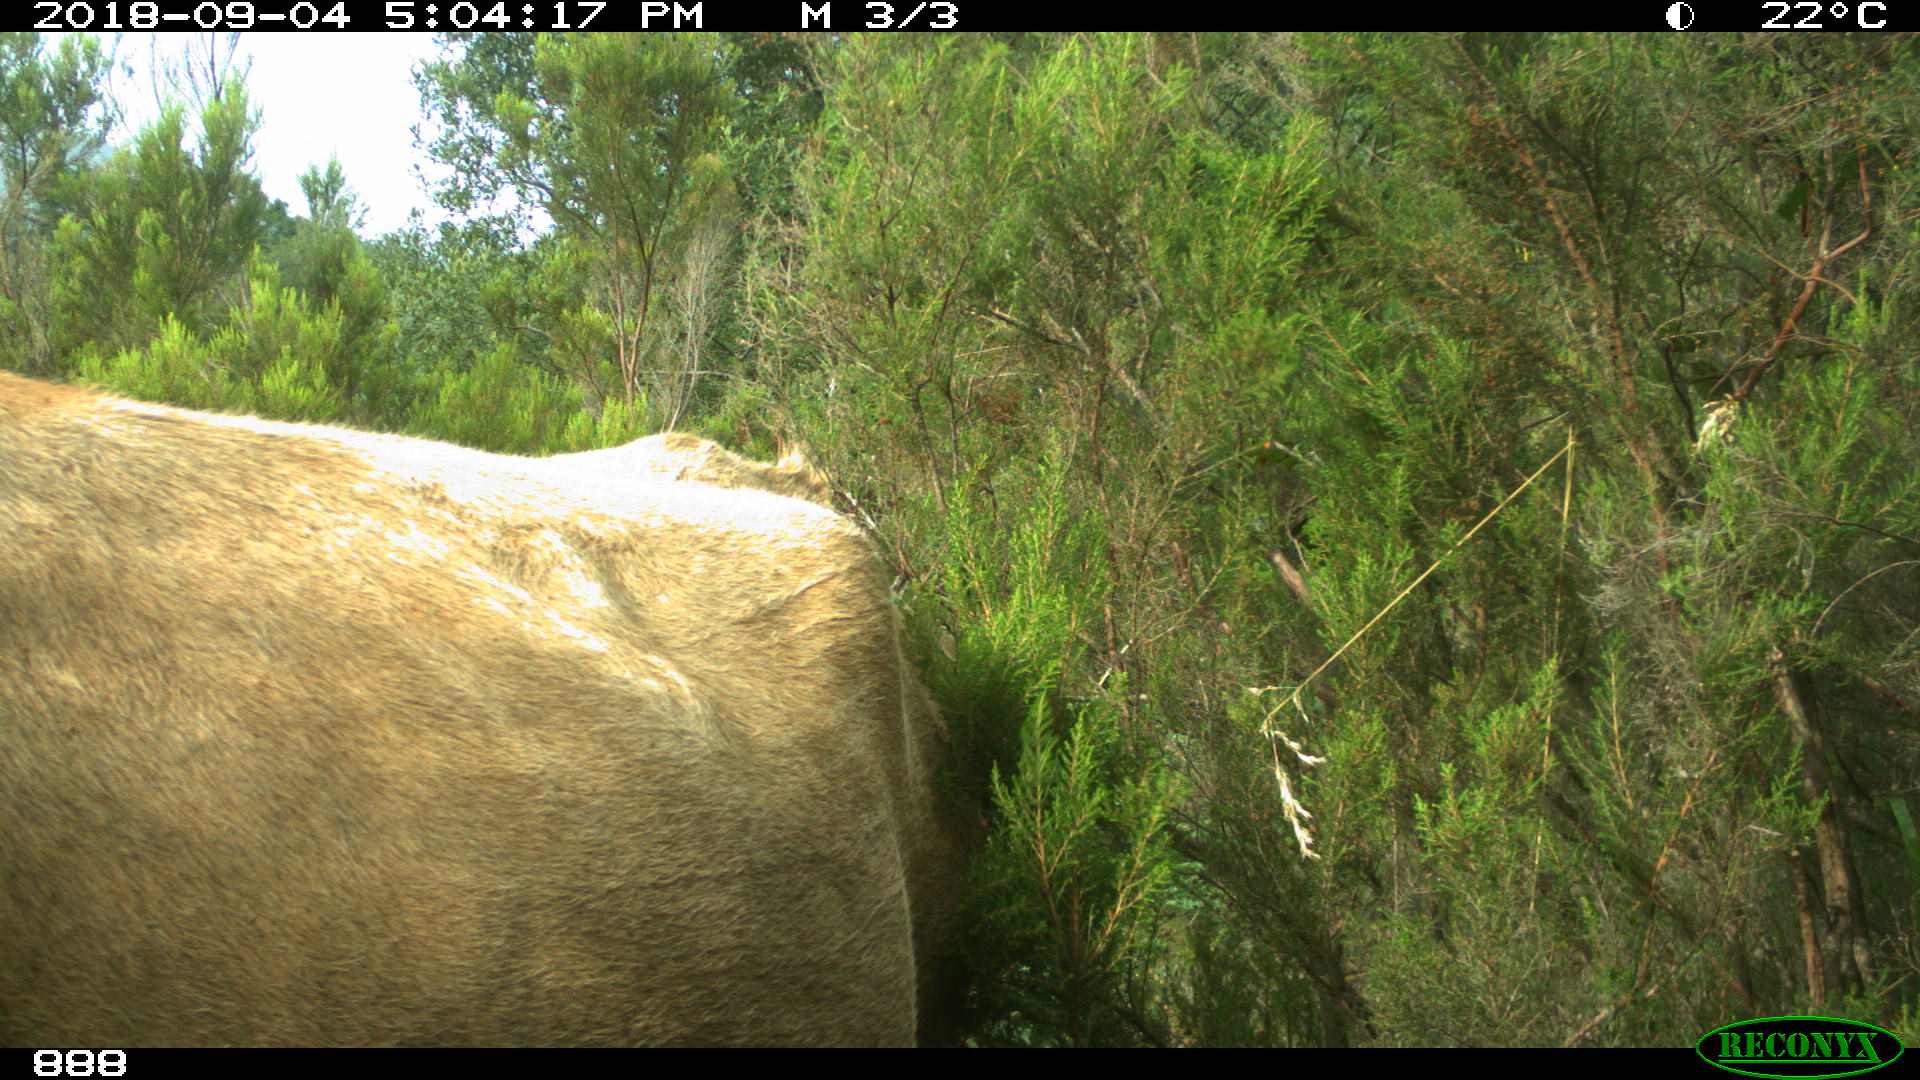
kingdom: Animalia
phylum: Chordata
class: Mammalia
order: Artiodactyla
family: Bovidae
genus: Bos
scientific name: Bos taurus
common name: Domesticated cattle
